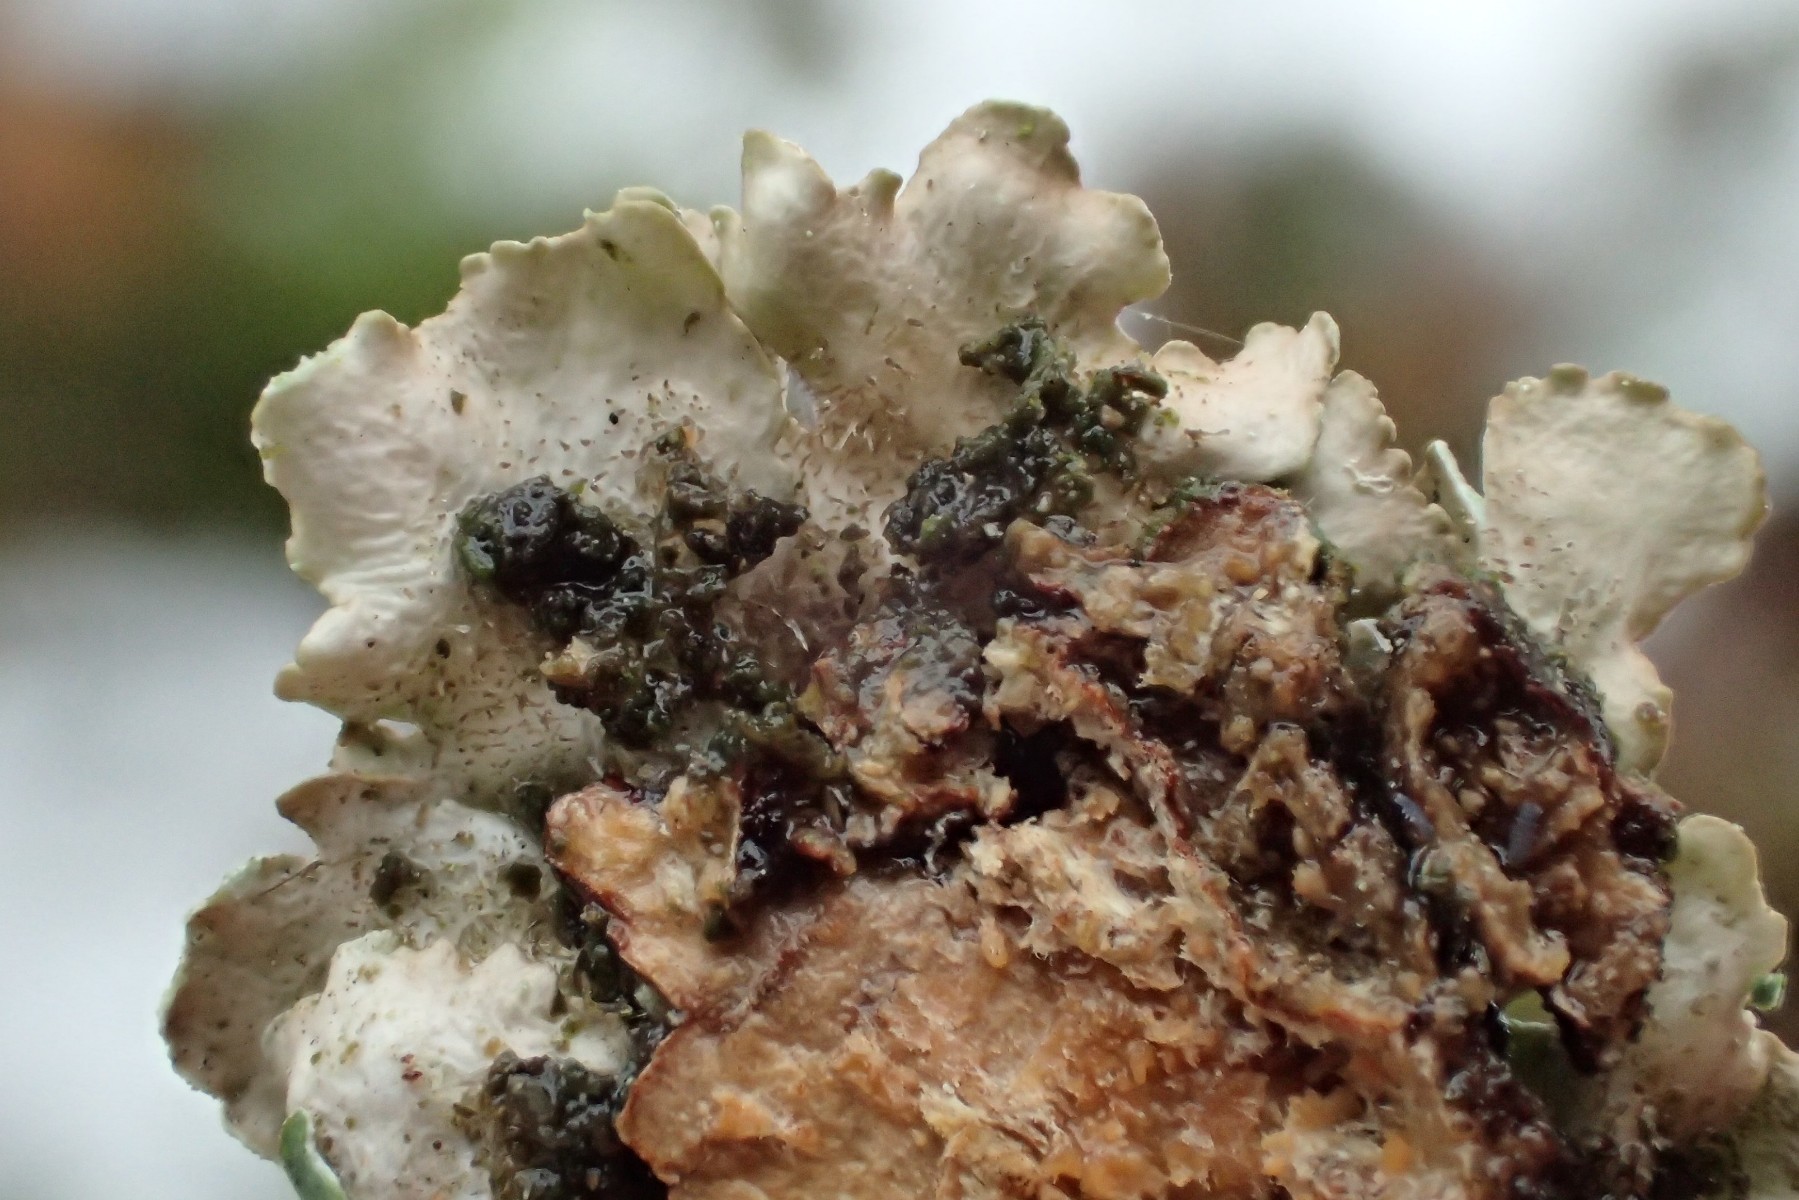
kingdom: Fungi
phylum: Ascomycota
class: Lecanoromycetes
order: Lecanorales
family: Parmeliaceae
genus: Punctelia
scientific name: Punctelia jeckeri
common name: randstøvet skållav
